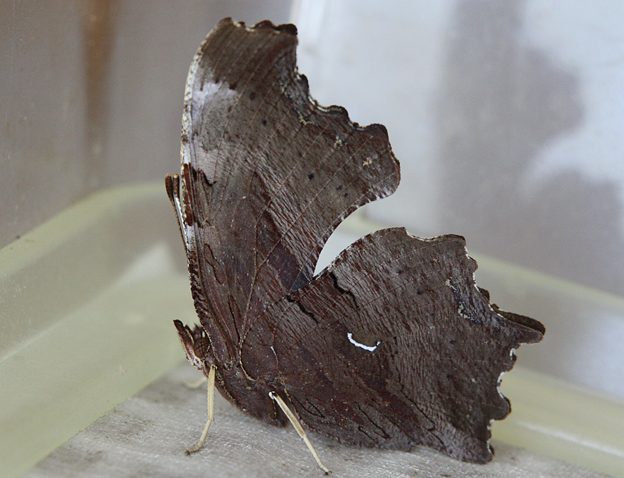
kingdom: Animalia
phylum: Arthropoda
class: Insecta
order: Lepidoptera
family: Nymphalidae
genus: Polygonia
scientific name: Polygonia satyrus
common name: Satyr Comma
